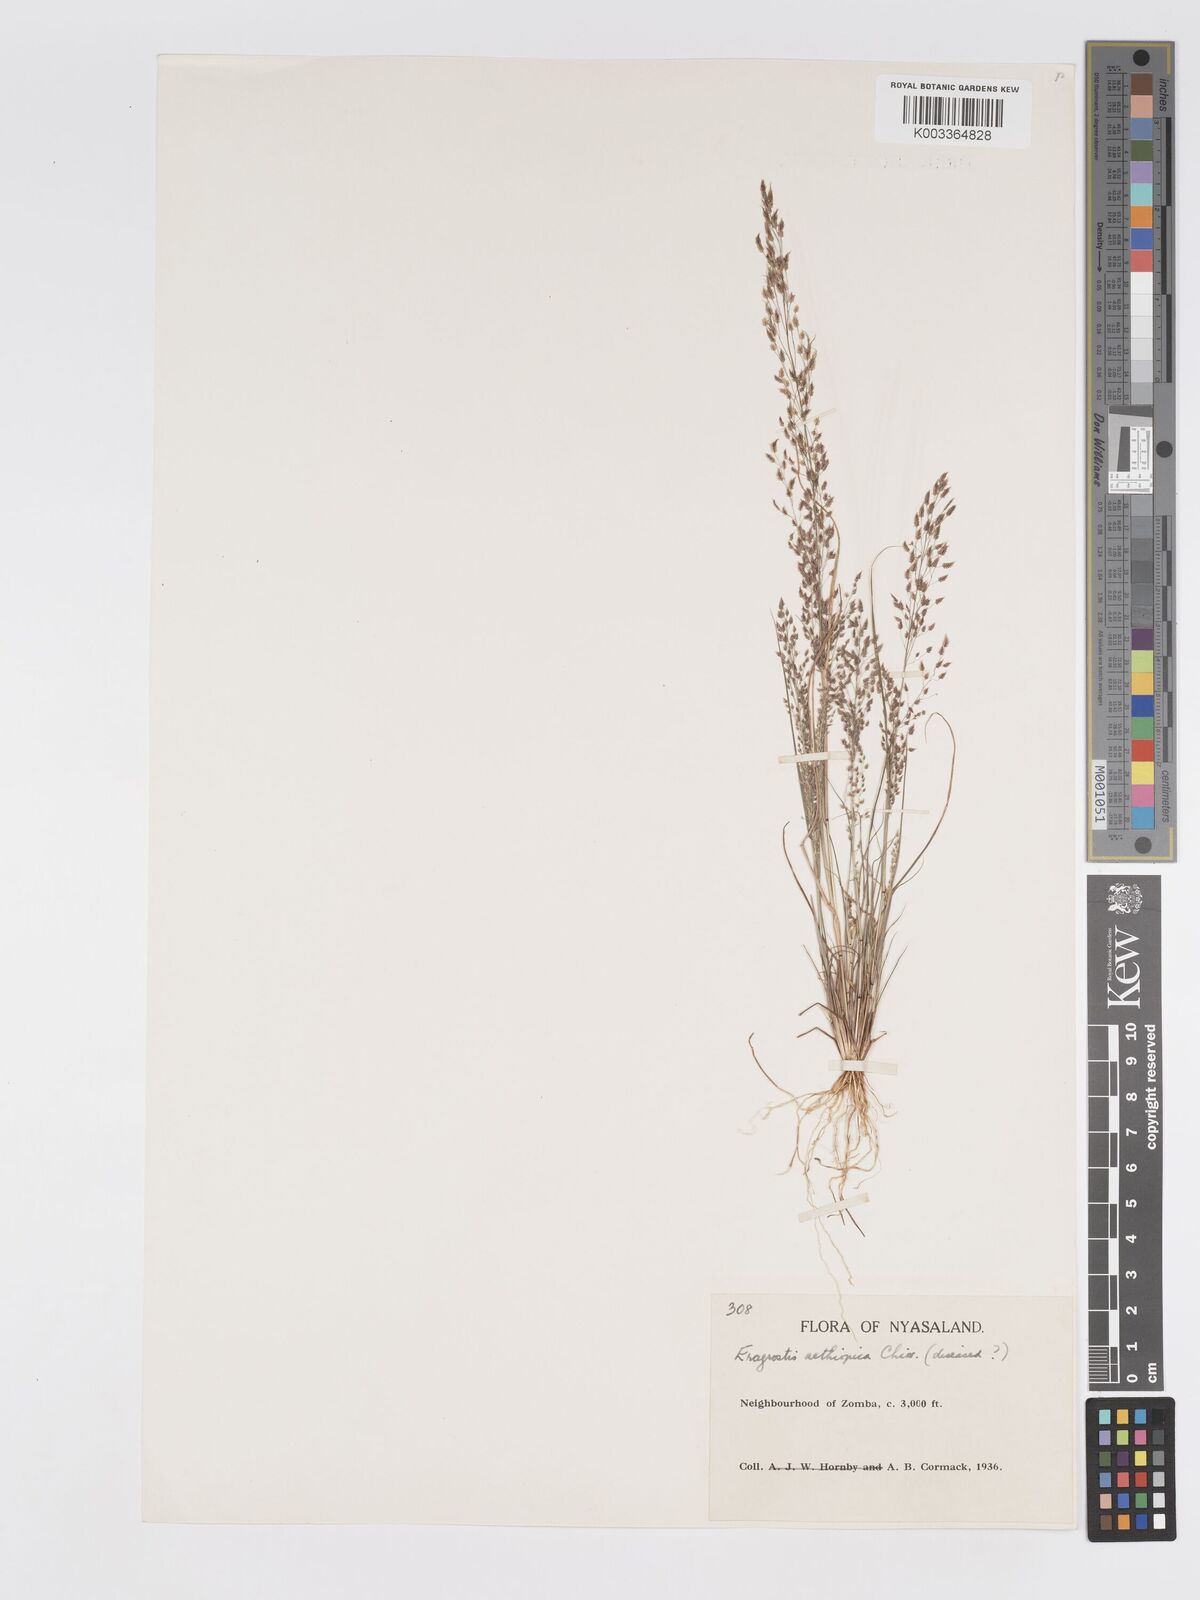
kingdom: Plantae
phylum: Tracheophyta
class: Liliopsida
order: Poales
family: Poaceae
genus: Eragrostis
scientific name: Eragrostis aethiopica
